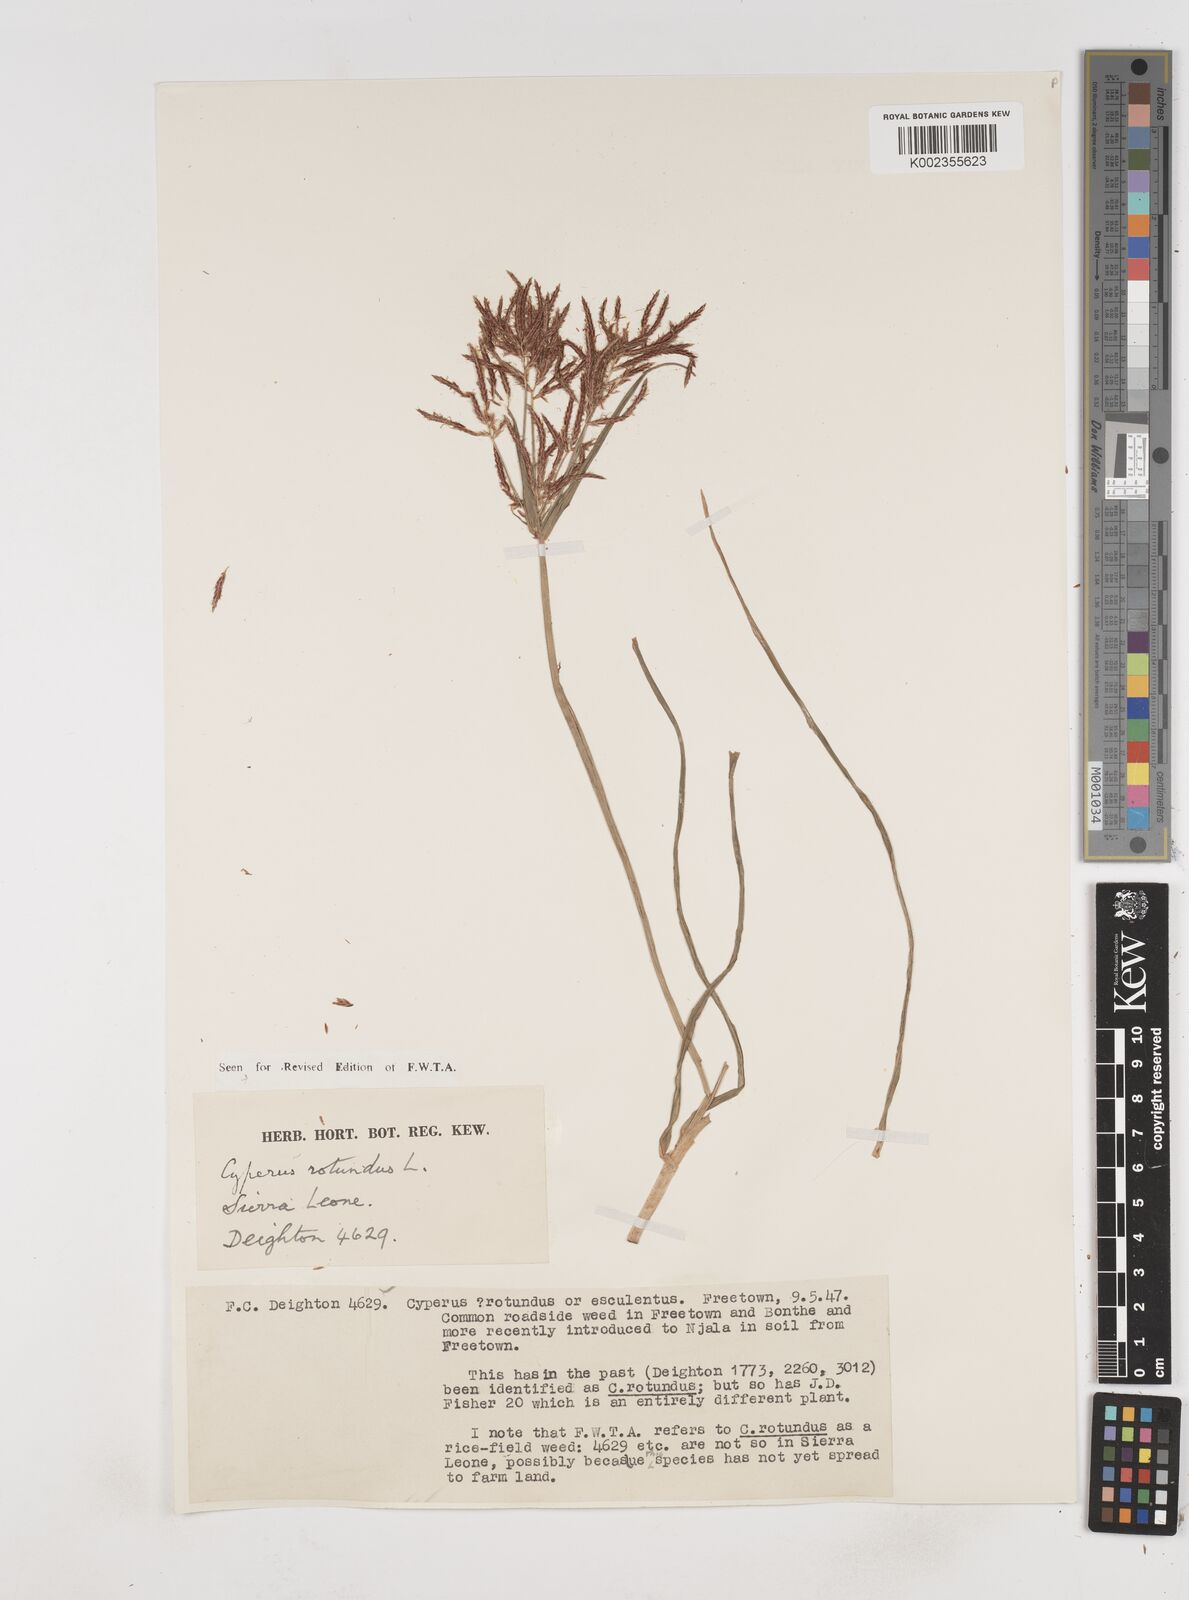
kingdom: Plantae
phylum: Tracheophyta
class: Liliopsida
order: Poales
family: Cyperaceae
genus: Cyperus
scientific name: Cyperus rotundus
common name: Nutgrass
